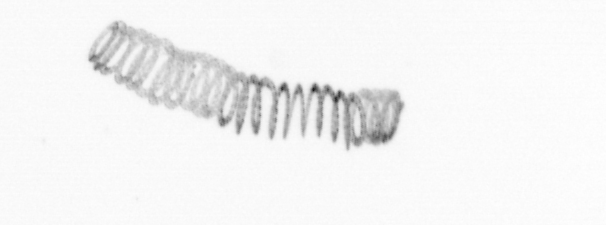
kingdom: Chromista
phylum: Ochrophyta
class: Bacillariophyceae
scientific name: Bacillariophyceae
